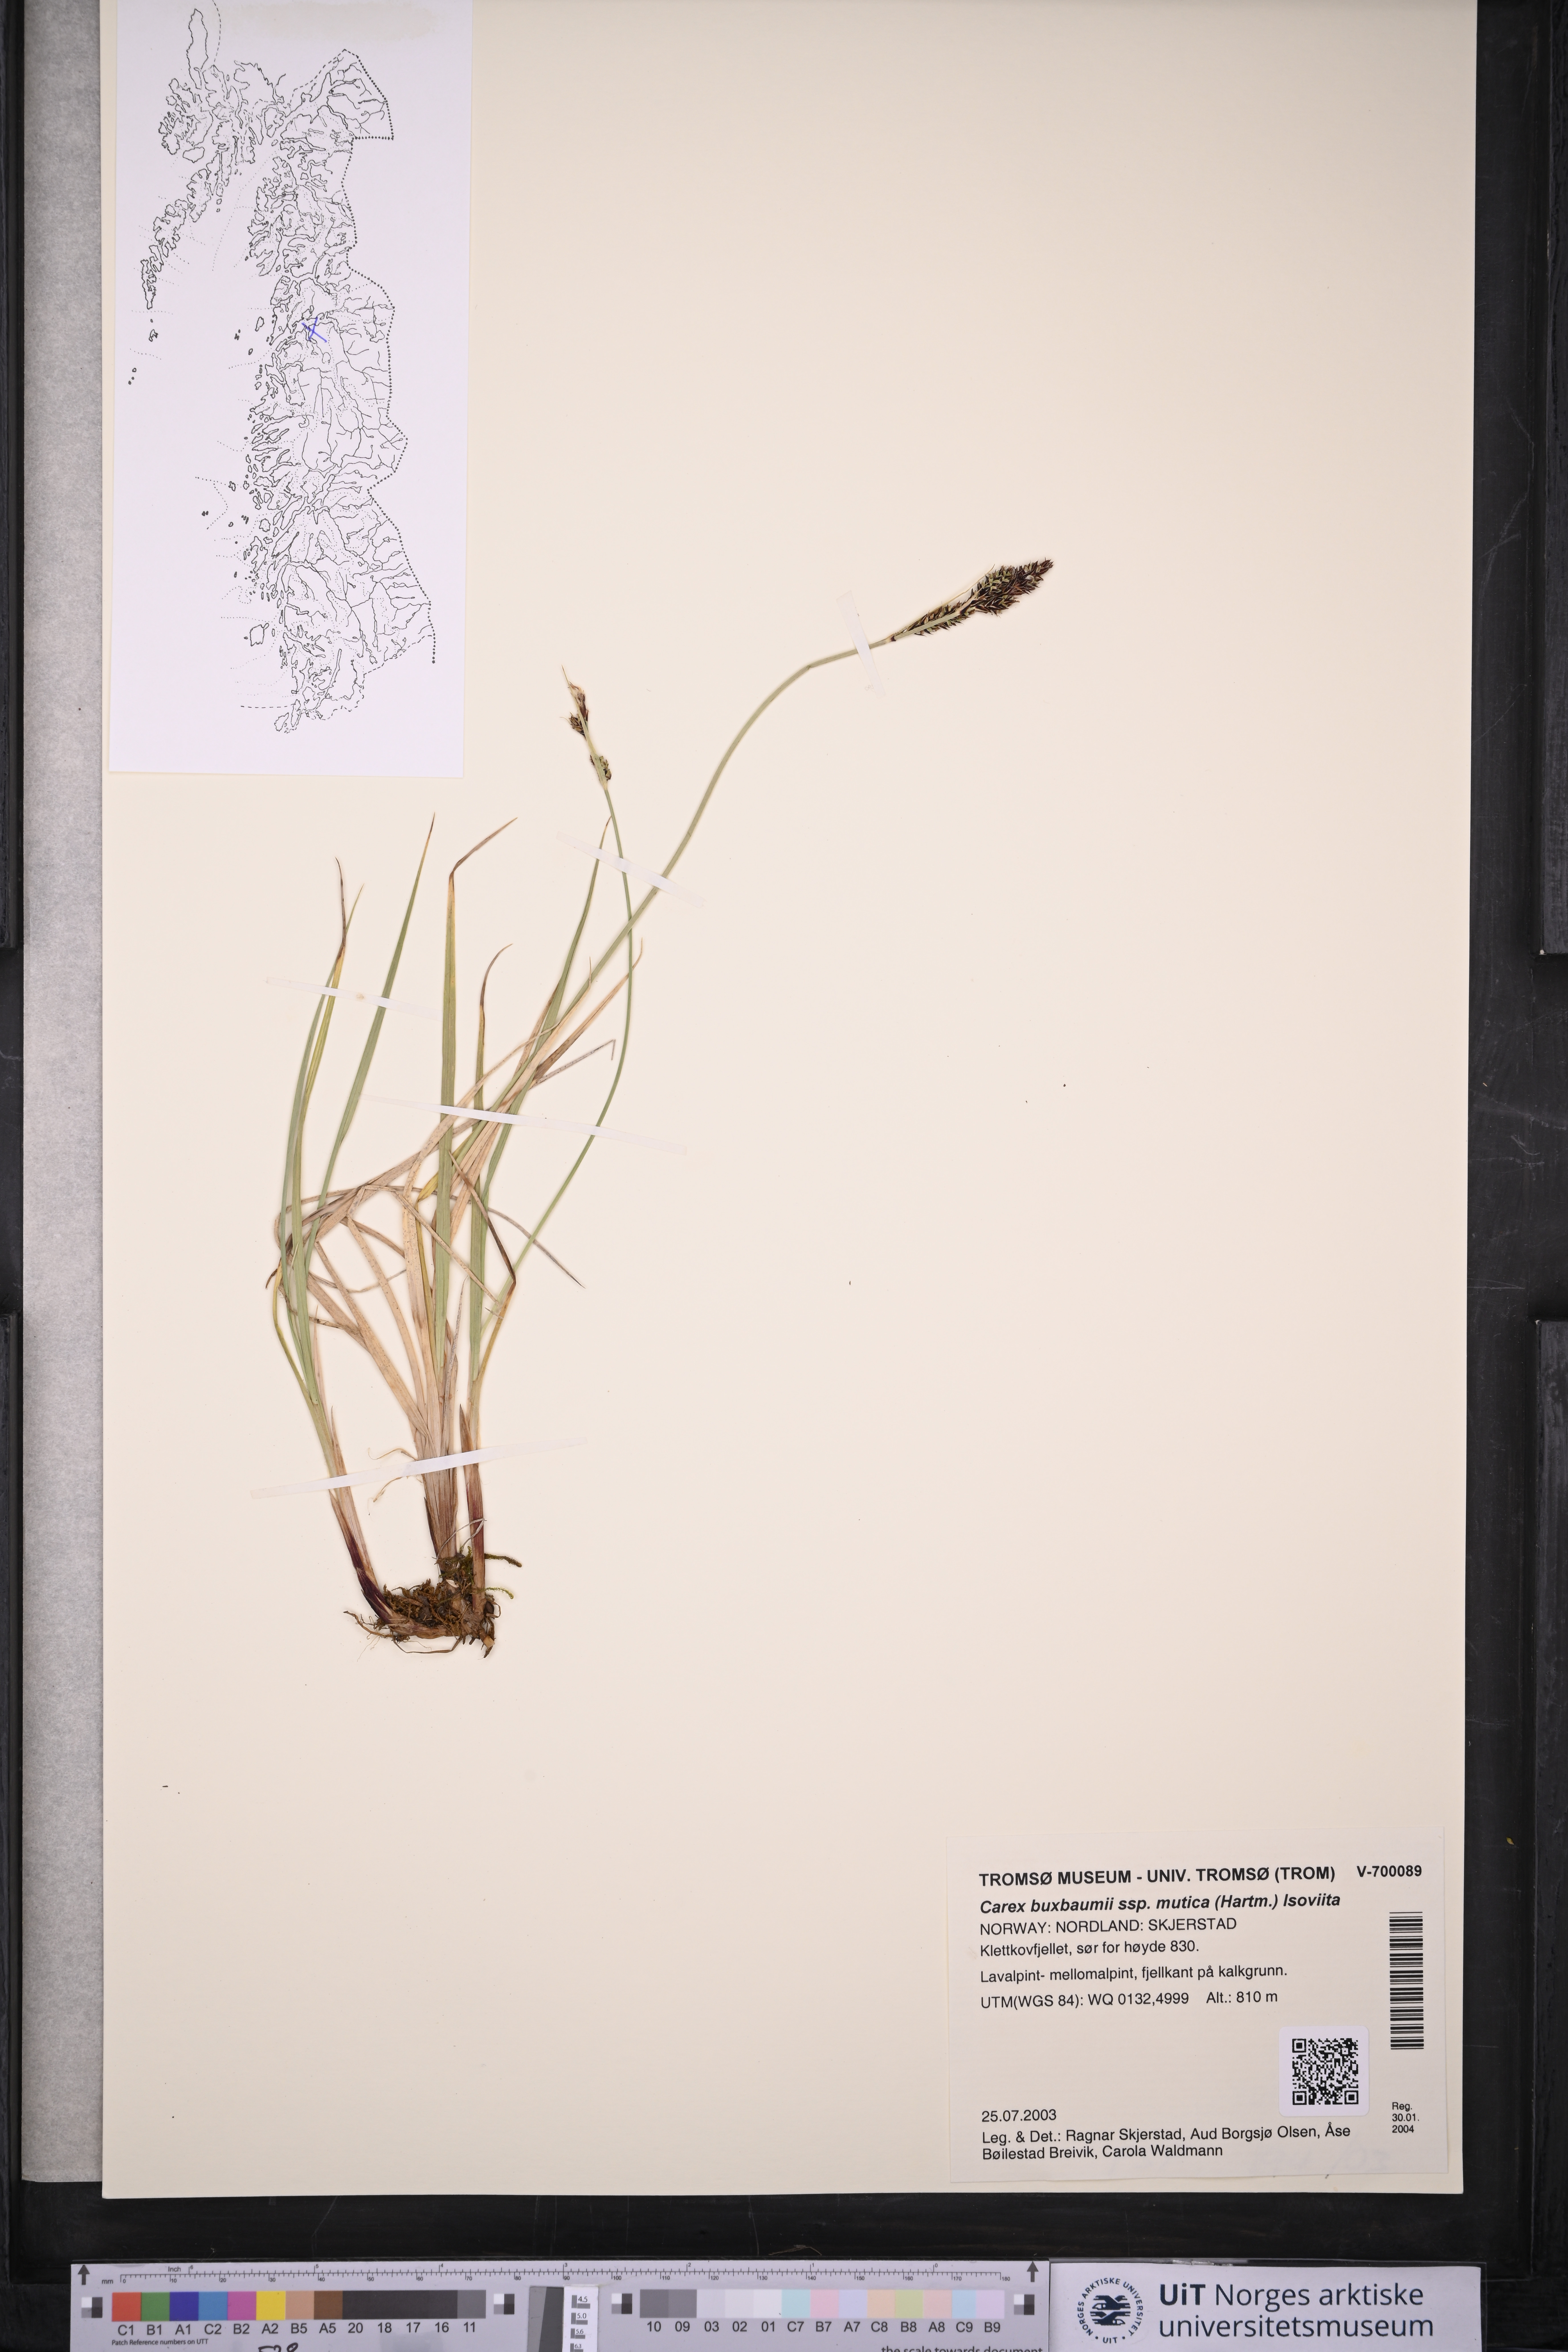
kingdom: Plantae
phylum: Tracheophyta
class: Liliopsida
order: Poales
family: Cyperaceae
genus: Carex
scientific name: Carex adelostoma
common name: Circumpolar sedge
